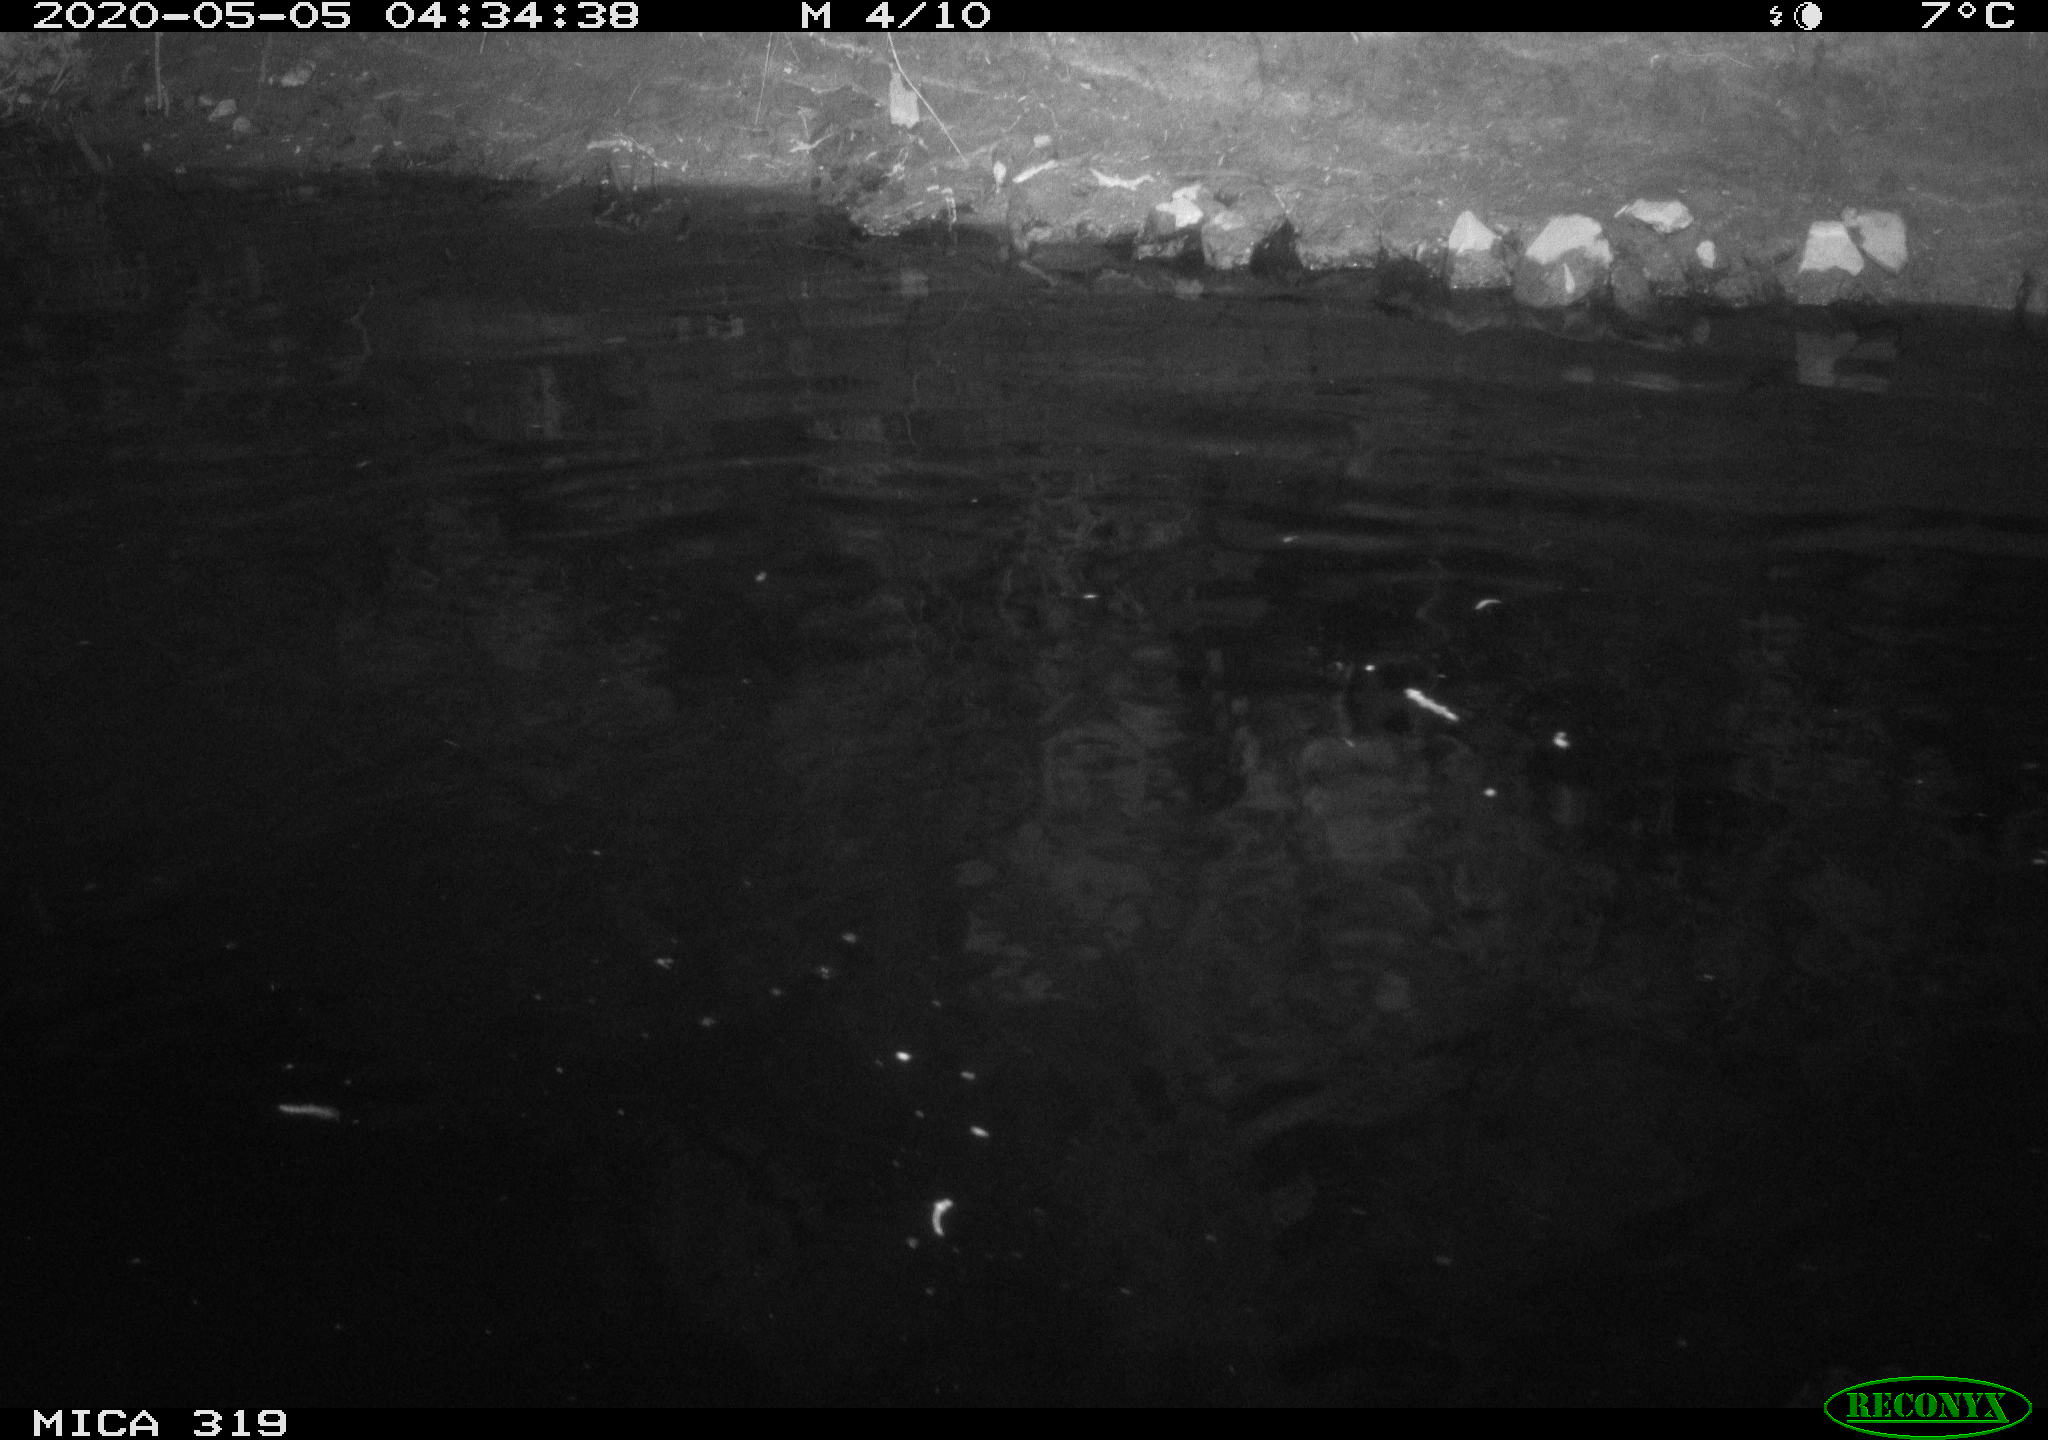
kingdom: Animalia
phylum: Chordata
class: Aves
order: Anseriformes
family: Anatidae
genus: Anas
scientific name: Anas platyrhynchos
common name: Mallard
